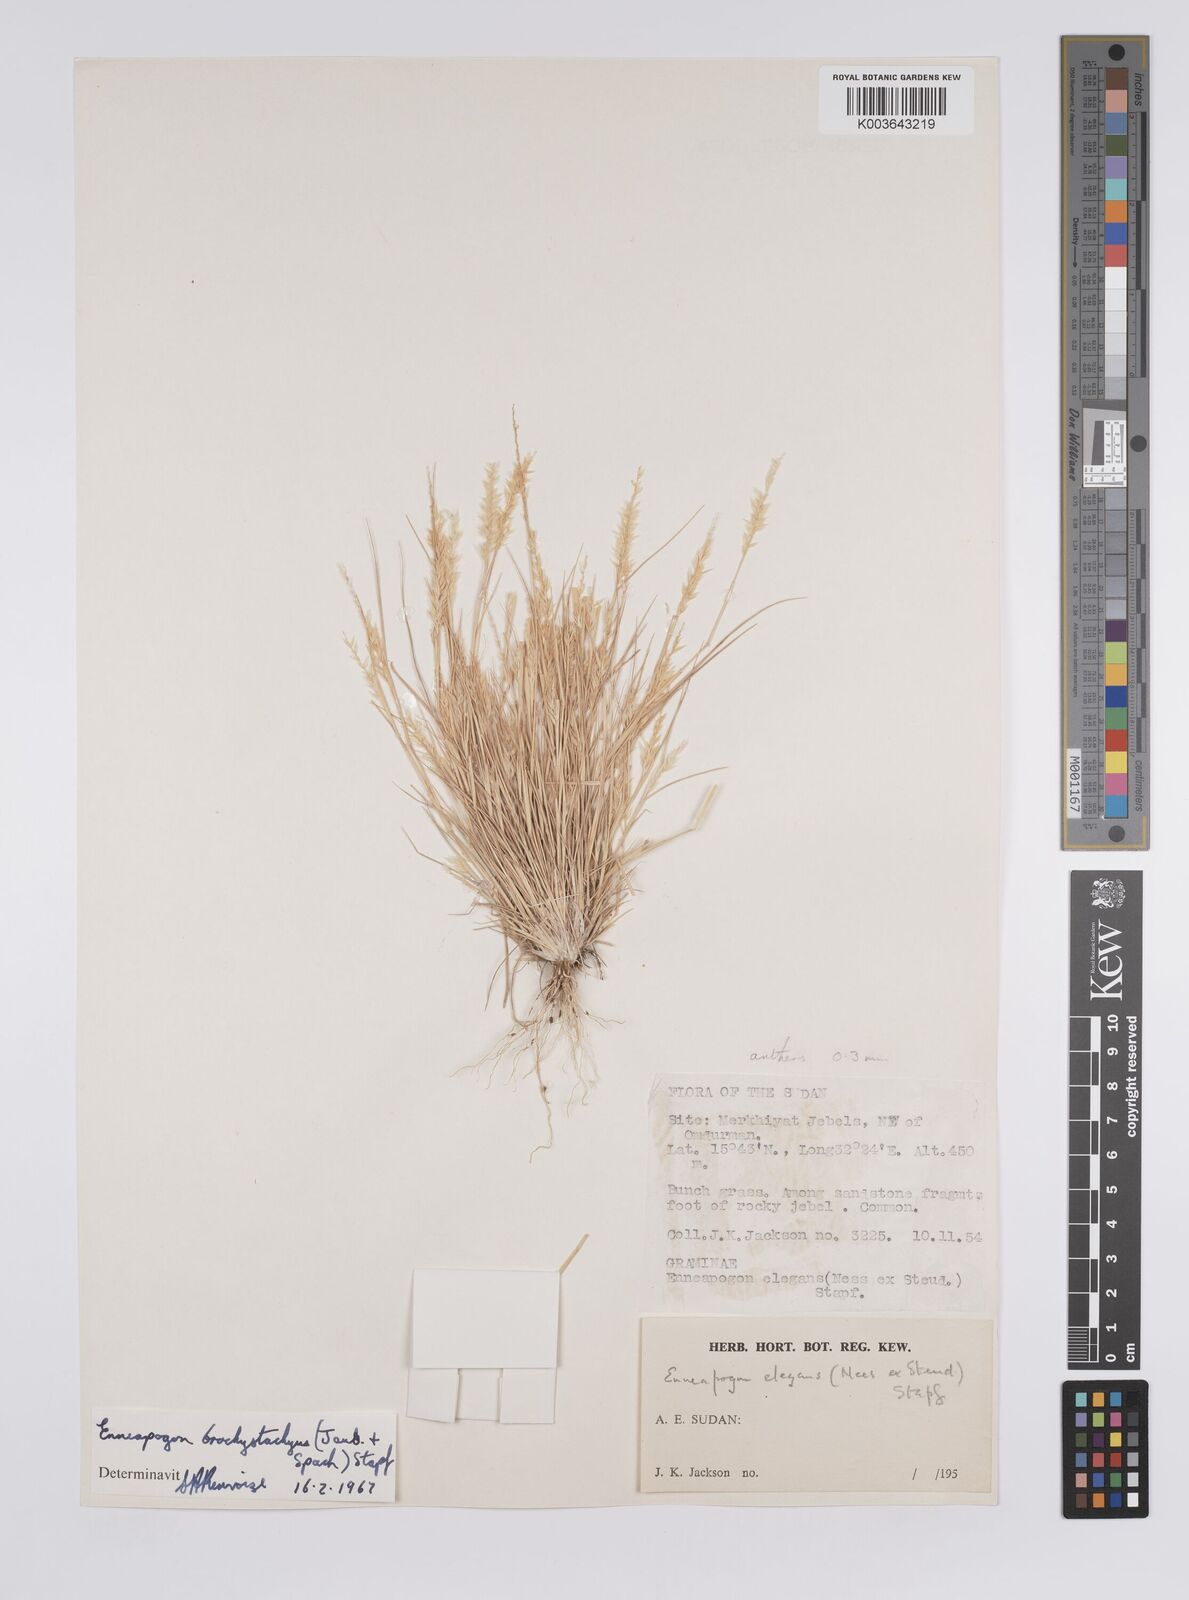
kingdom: Plantae
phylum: Tracheophyta
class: Liliopsida
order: Poales
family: Poaceae
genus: Enneapogon
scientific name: Enneapogon desvauxii
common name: Feather pappus grass
